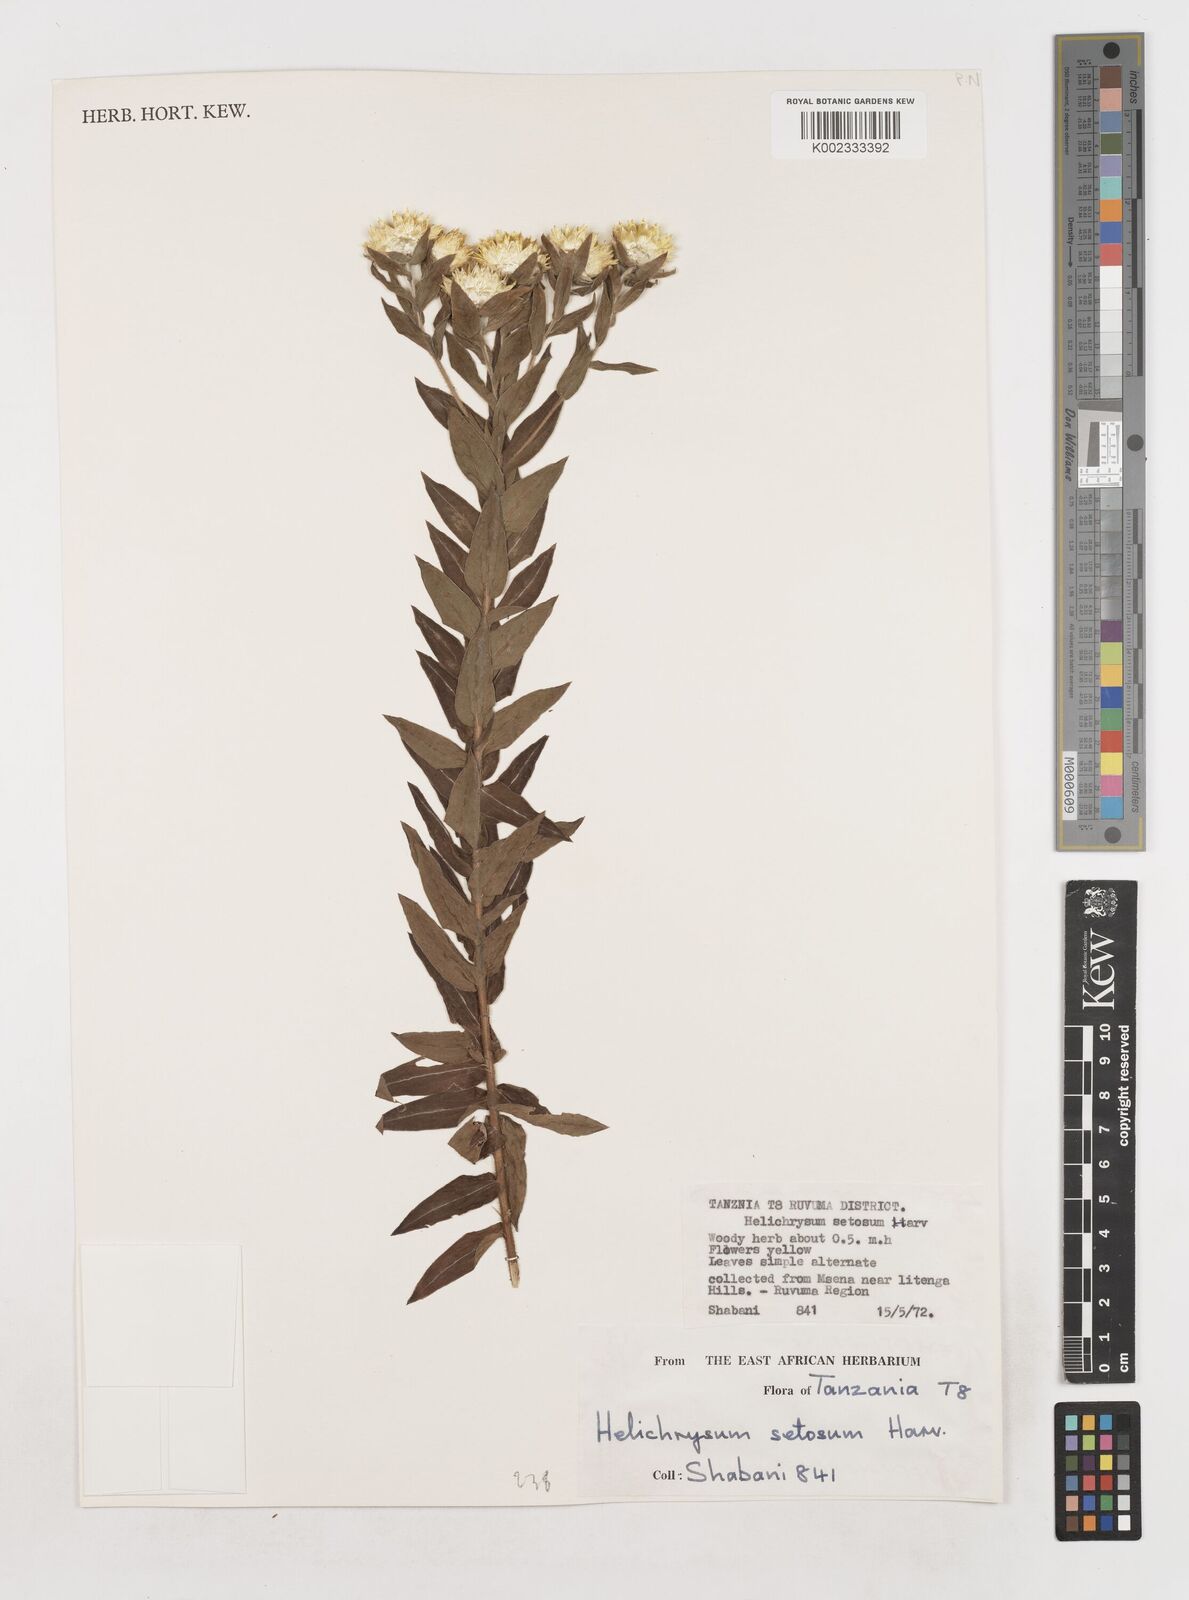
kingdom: Plantae
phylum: Tracheophyta
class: Magnoliopsida
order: Asterales
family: Asteraceae
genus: Helichrysum
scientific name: Helichrysum setosum
